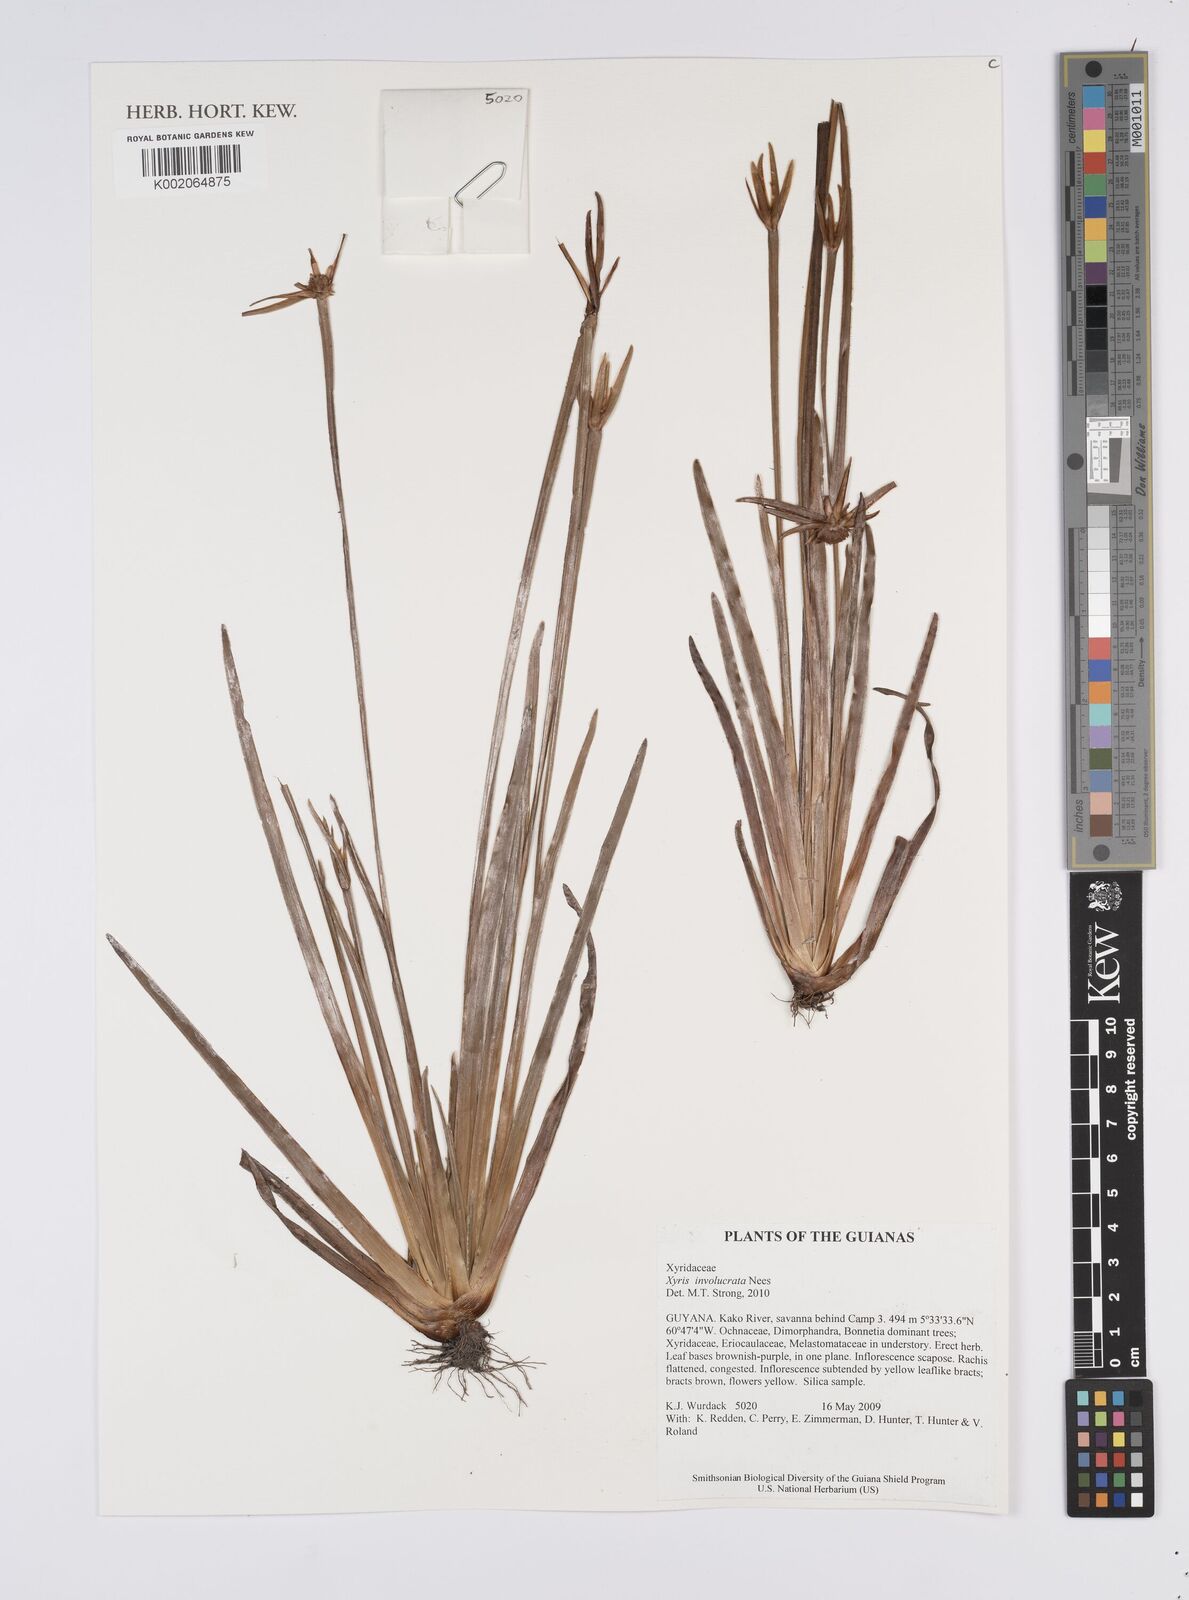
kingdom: Plantae
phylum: Tracheophyta
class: Liliopsida
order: Poales
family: Xyridaceae
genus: Xyris
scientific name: Xyris involucrata
